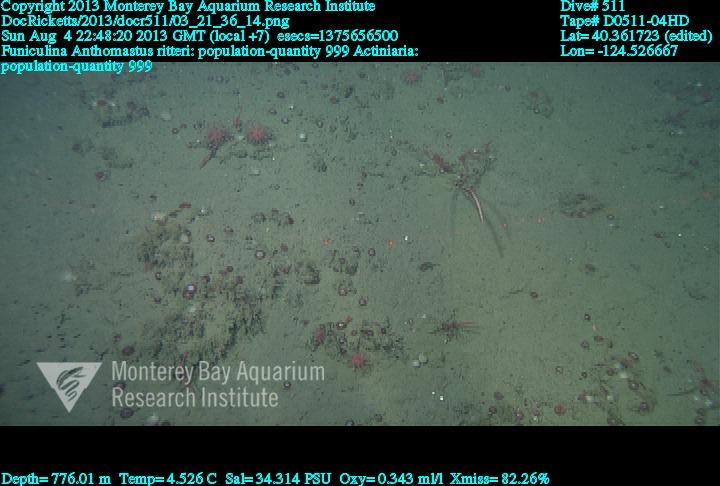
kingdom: Animalia
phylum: Cnidaria
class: Anthozoa
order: Scleralcyonacea
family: Coralliidae
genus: Heteropolypus
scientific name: Heteropolypus ritteri
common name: Ritter's soft coral
